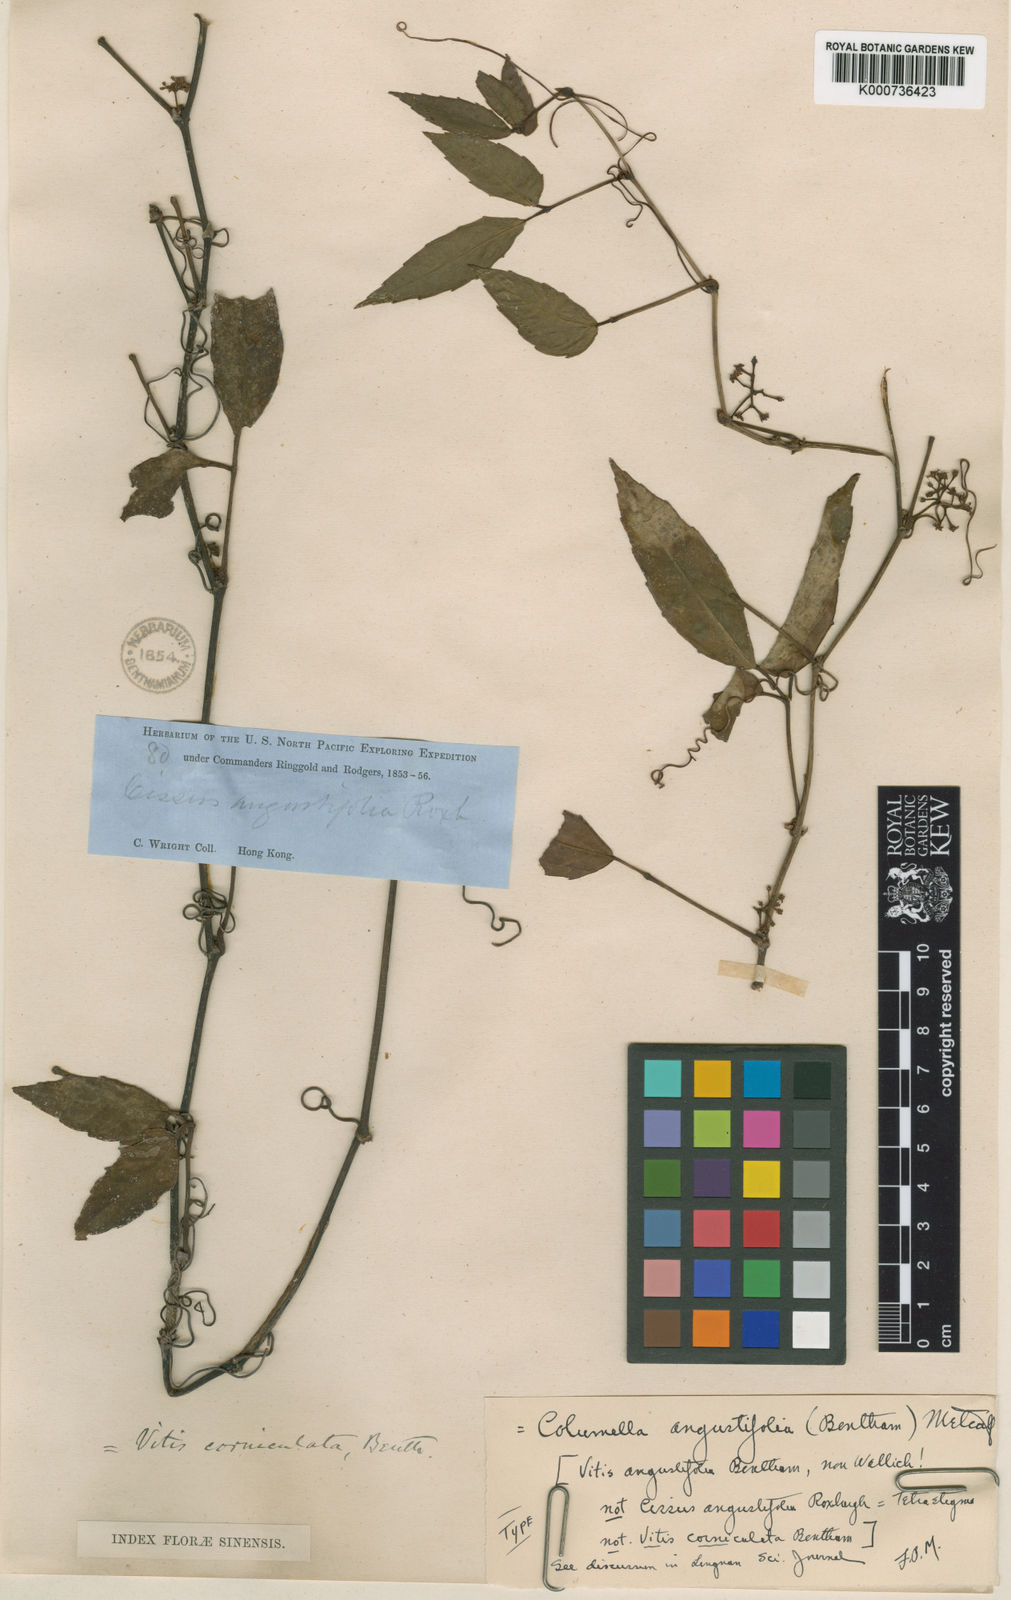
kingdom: Plantae
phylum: Tracheophyta
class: Magnoliopsida
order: Vitales
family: Vitaceae
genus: Causonis
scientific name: Causonis corniculata
